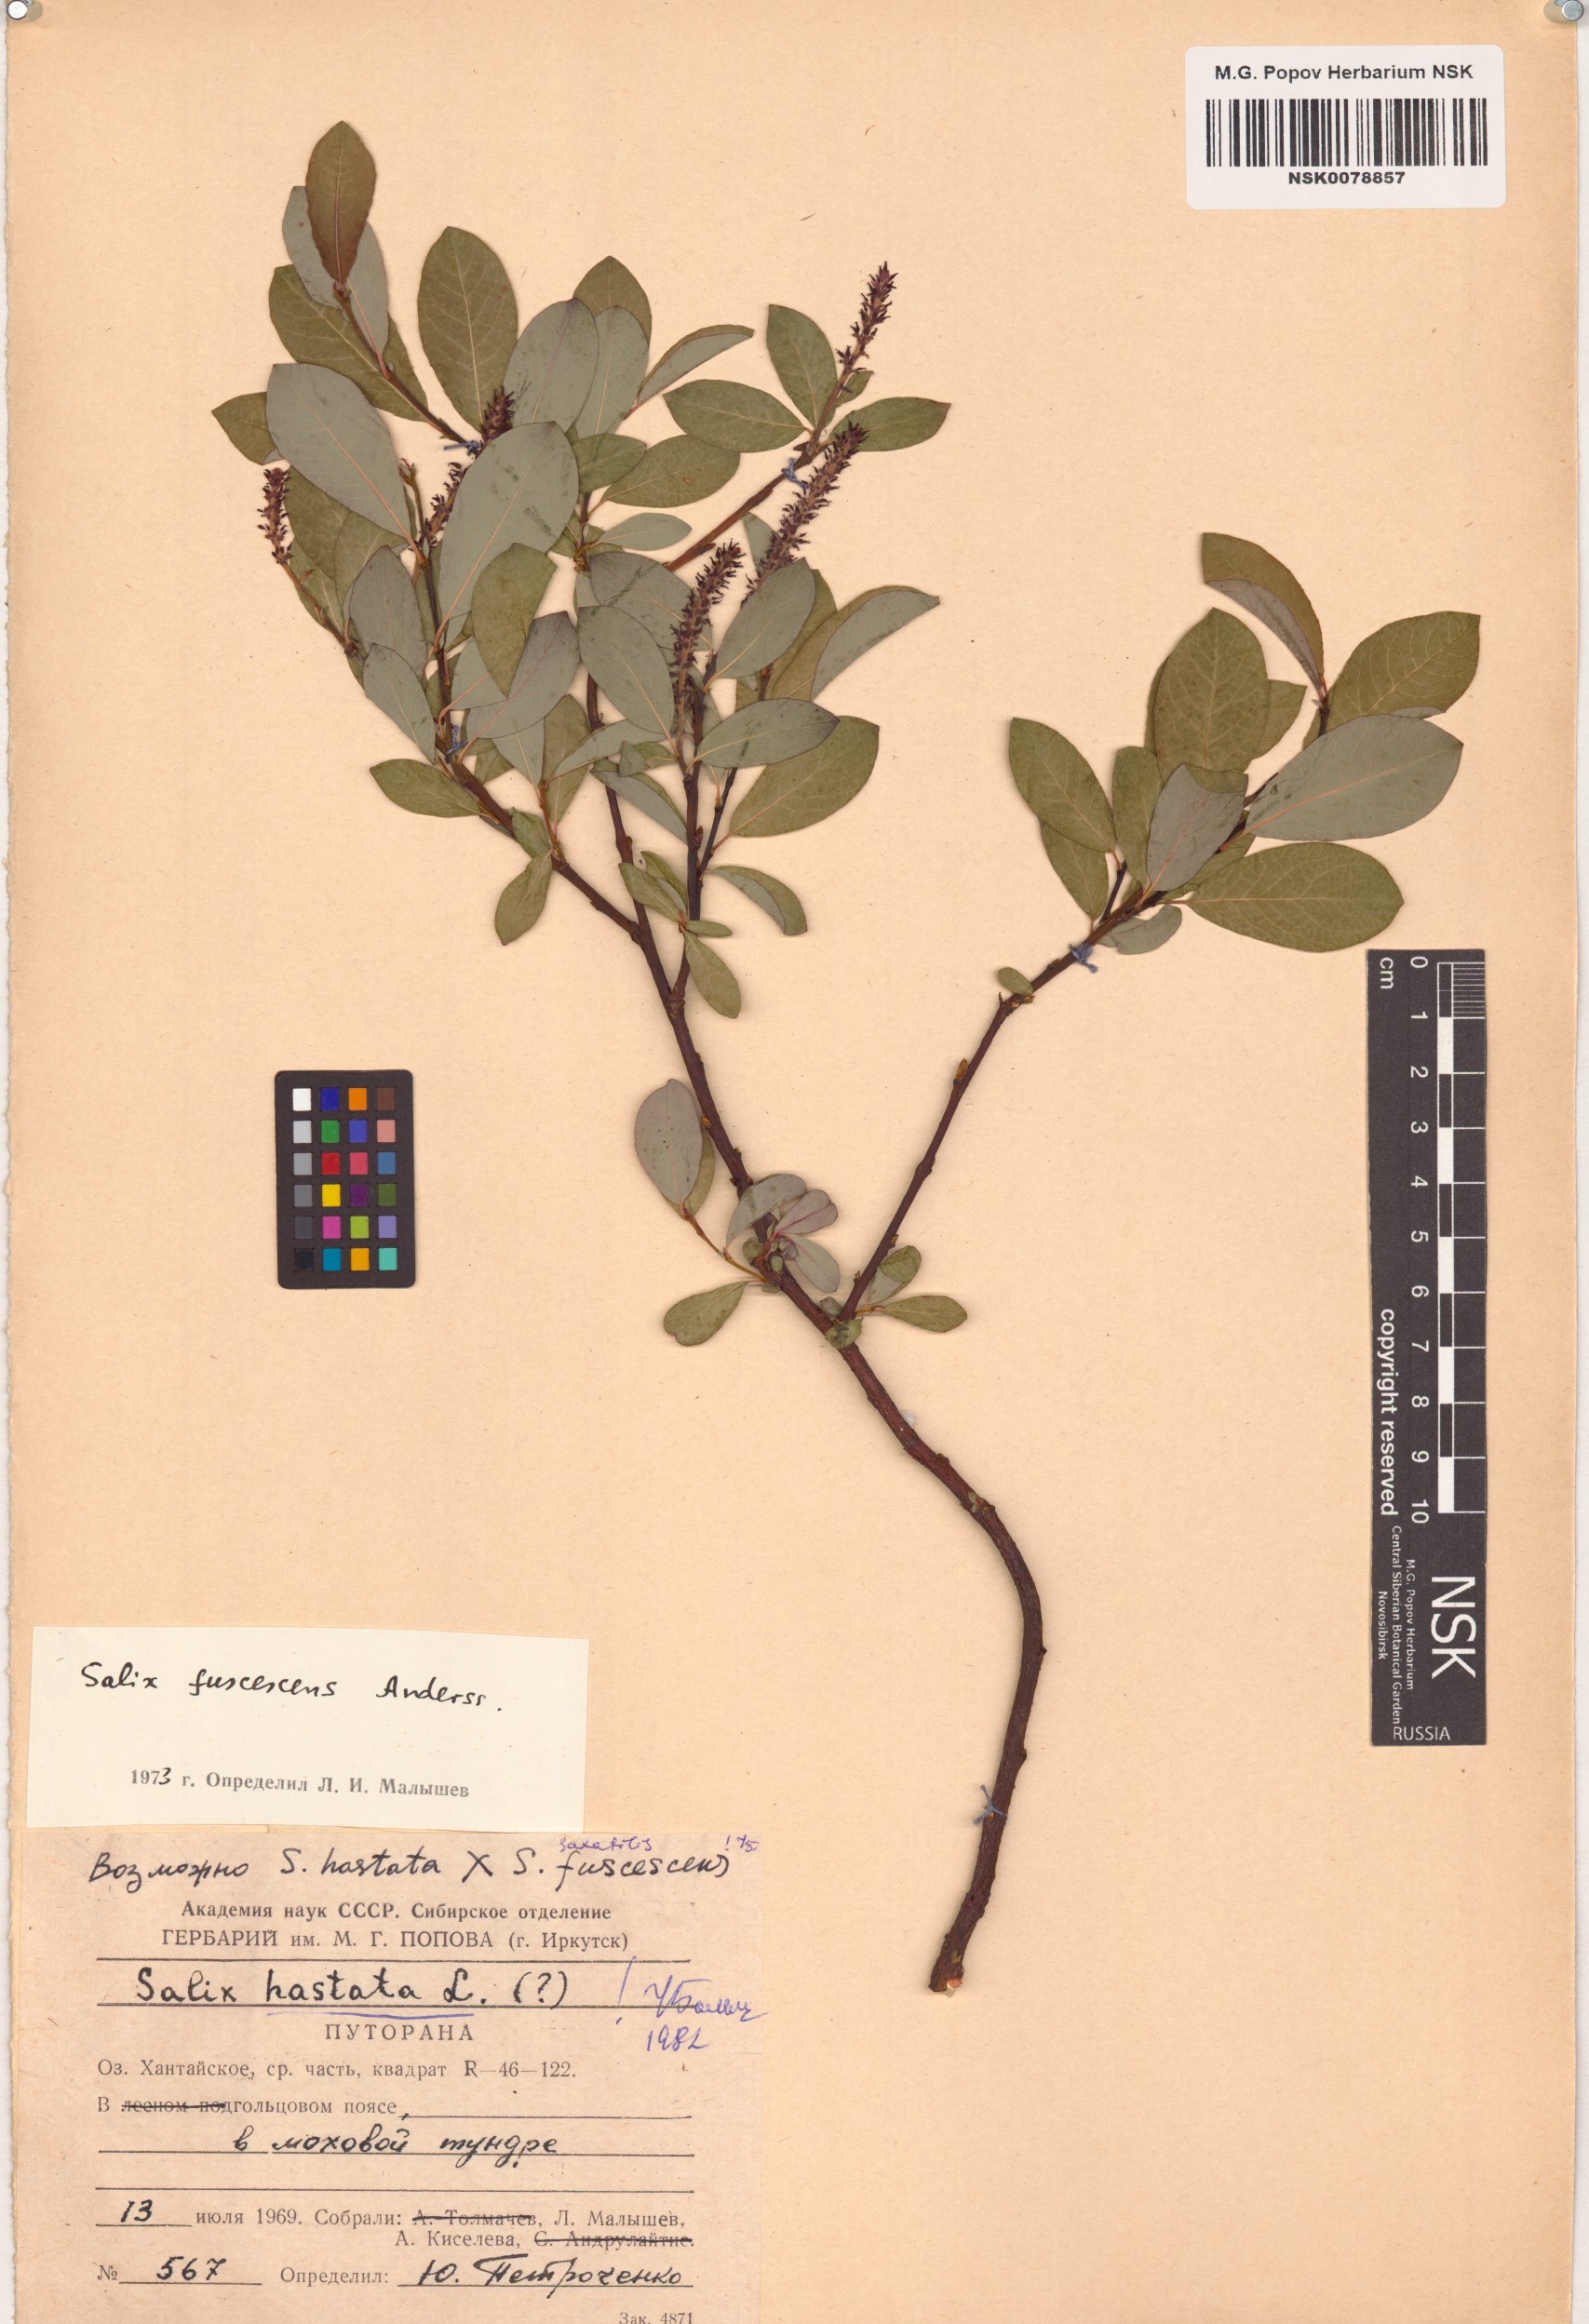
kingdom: Plantae
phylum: Tracheophyta
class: Magnoliopsida
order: Malpighiales
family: Salicaceae
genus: Salix
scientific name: Salix hastata
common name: Halberd willow
